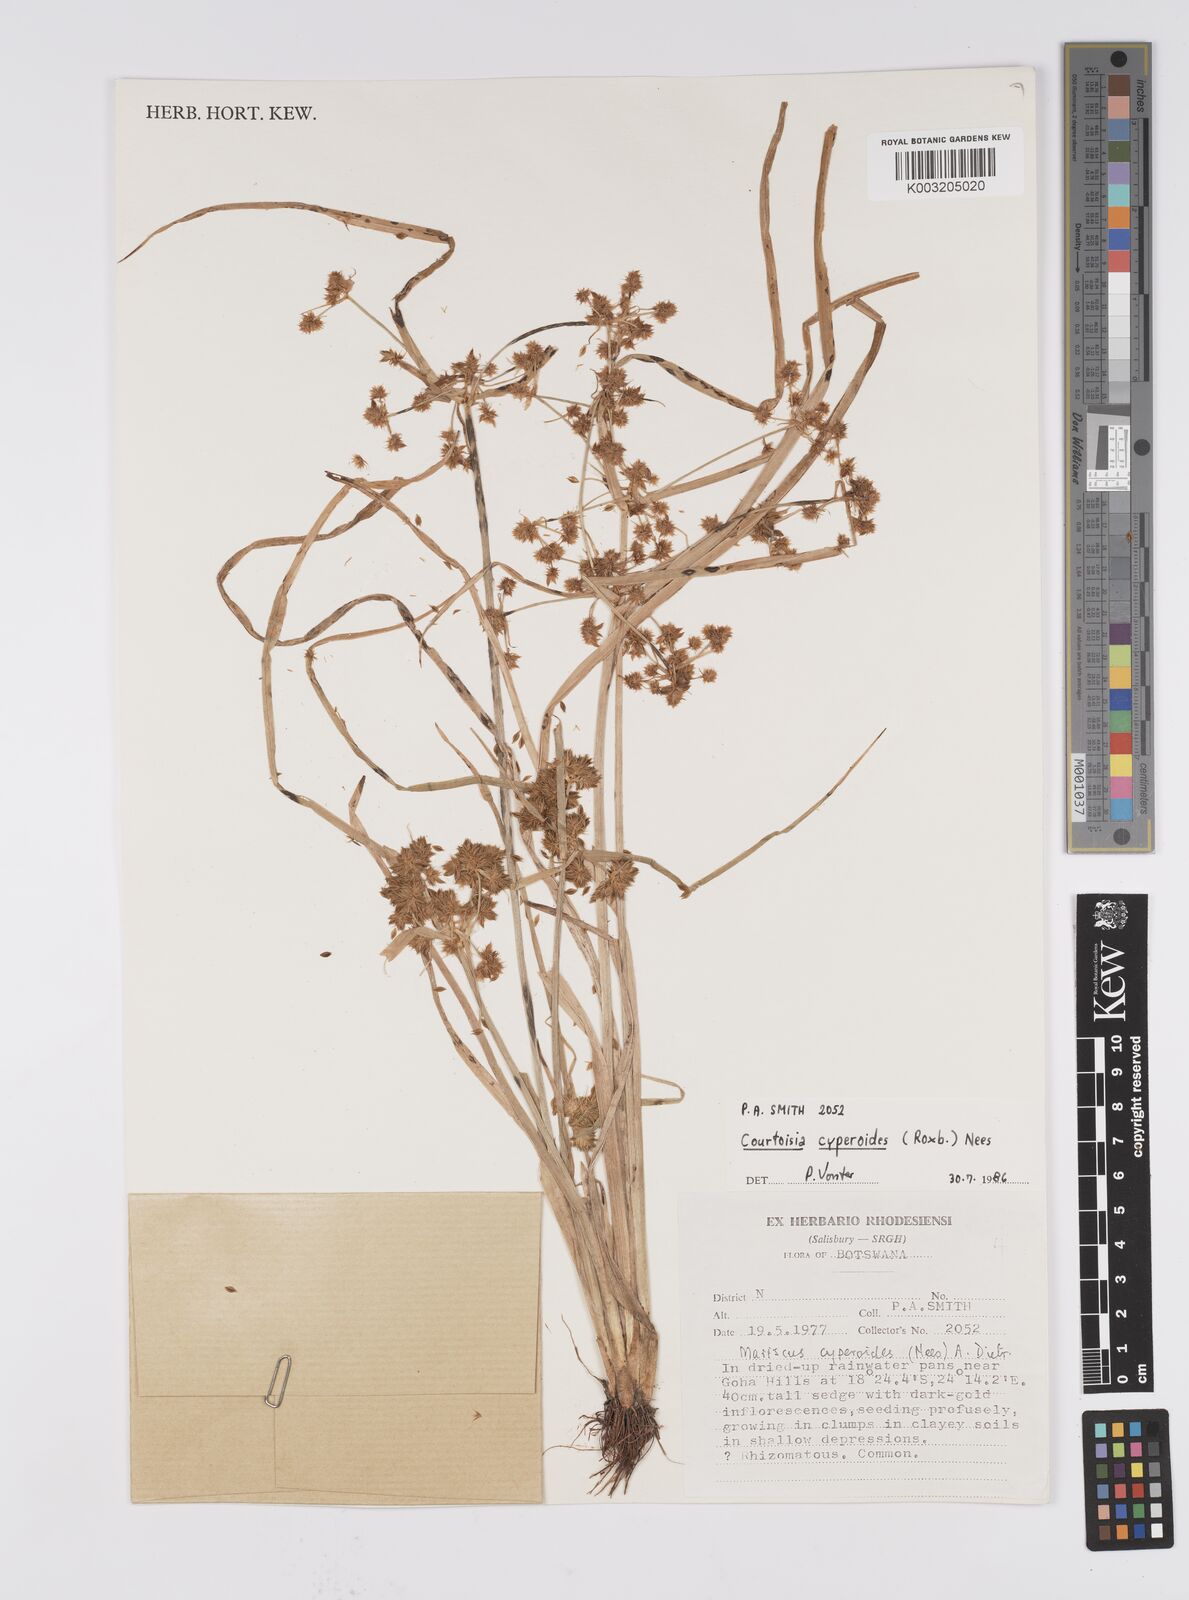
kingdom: Plantae
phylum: Tracheophyta
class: Liliopsida
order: Poales
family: Cyperaceae
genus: Cyperus
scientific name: Cyperus cyperoides
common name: Pacific island flat sedge
